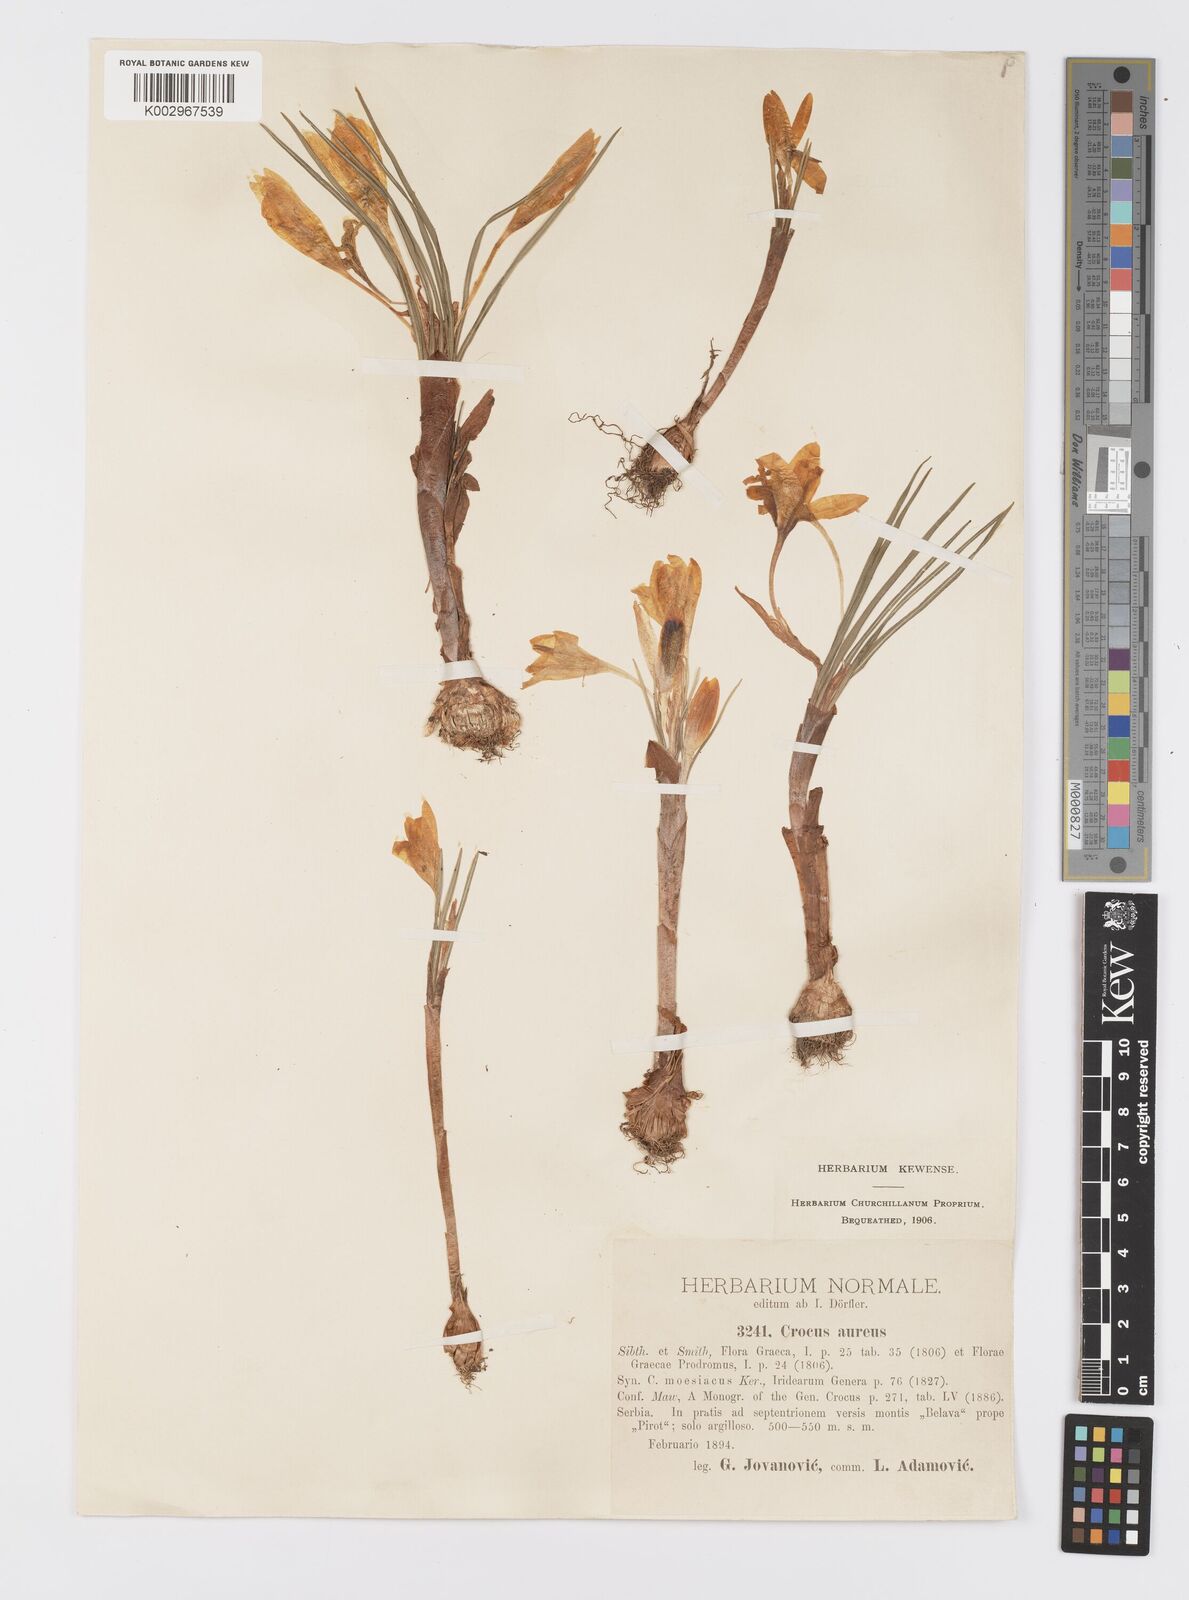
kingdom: Plantae
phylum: Tracheophyta
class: Liliopsida
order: Asparagales
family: Iridaceae
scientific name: Iridaceae
